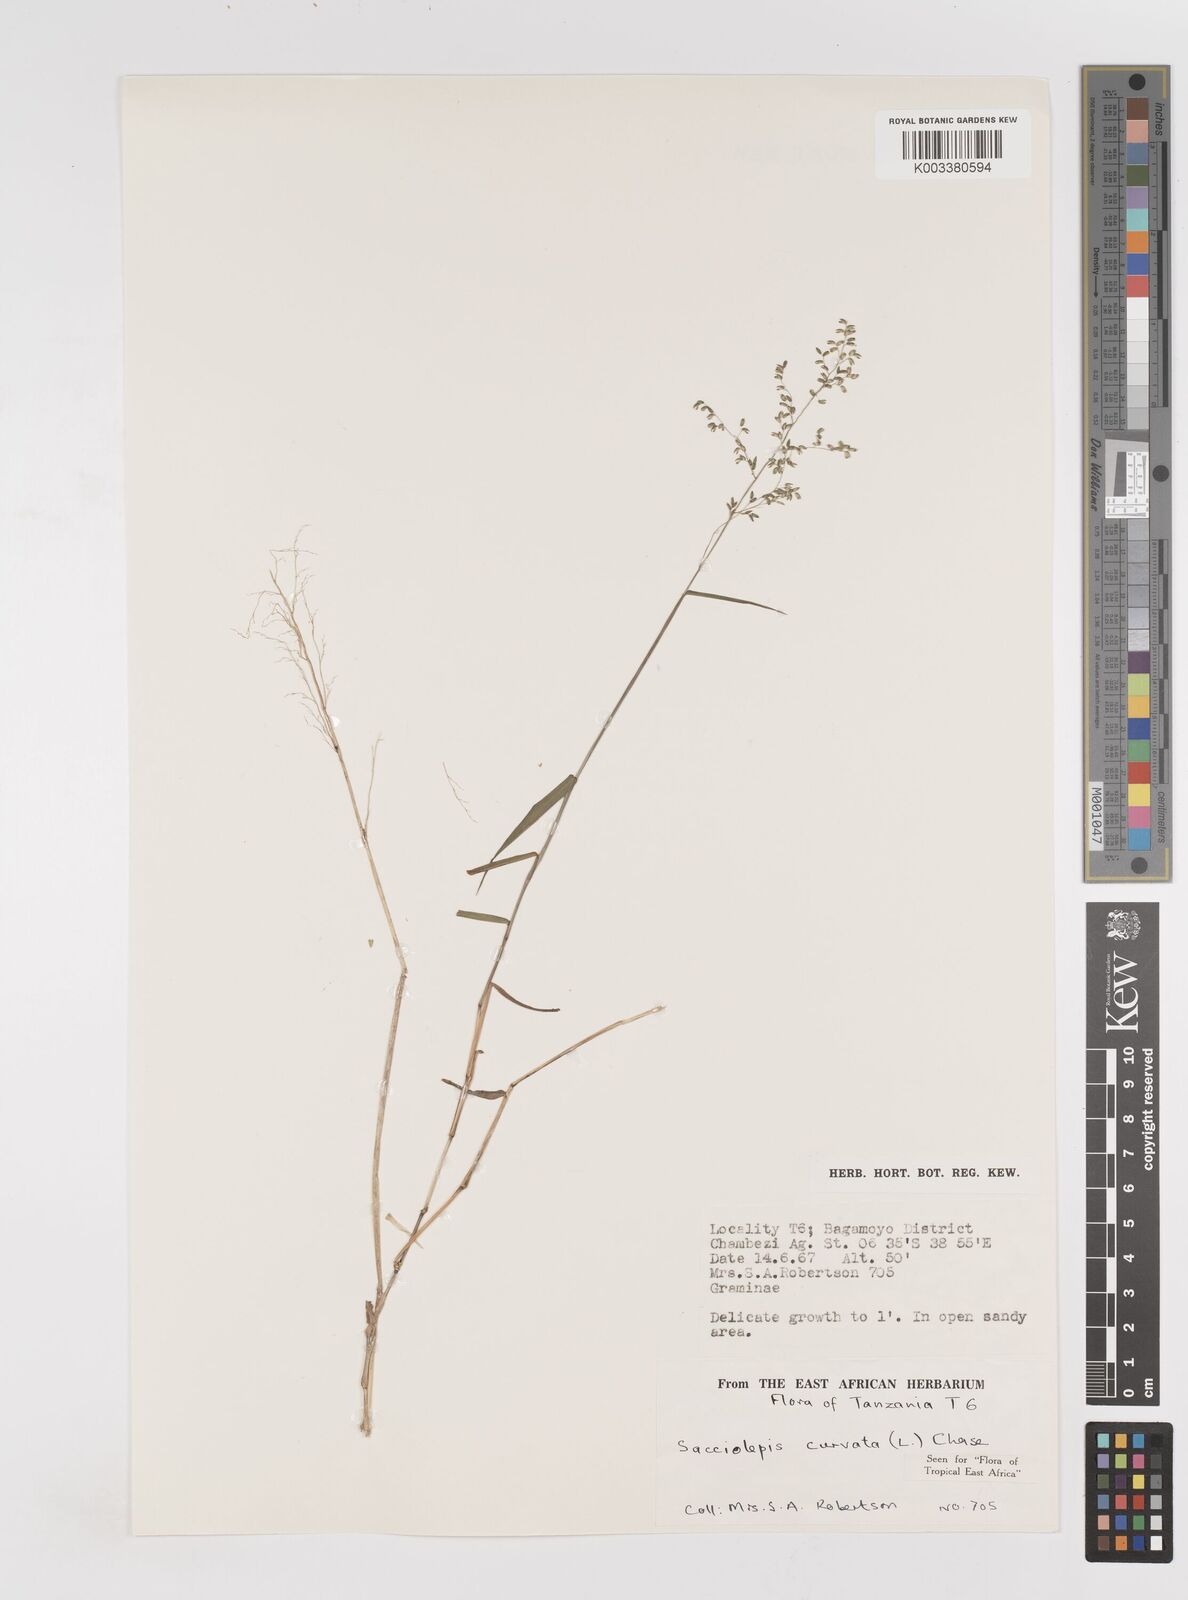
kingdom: Plantae
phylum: Tracheophyta
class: Liliopsida
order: Poales
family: Poaceae
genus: Sacciolepis
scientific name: Sacciolepis curvata
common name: Forest hood grass
